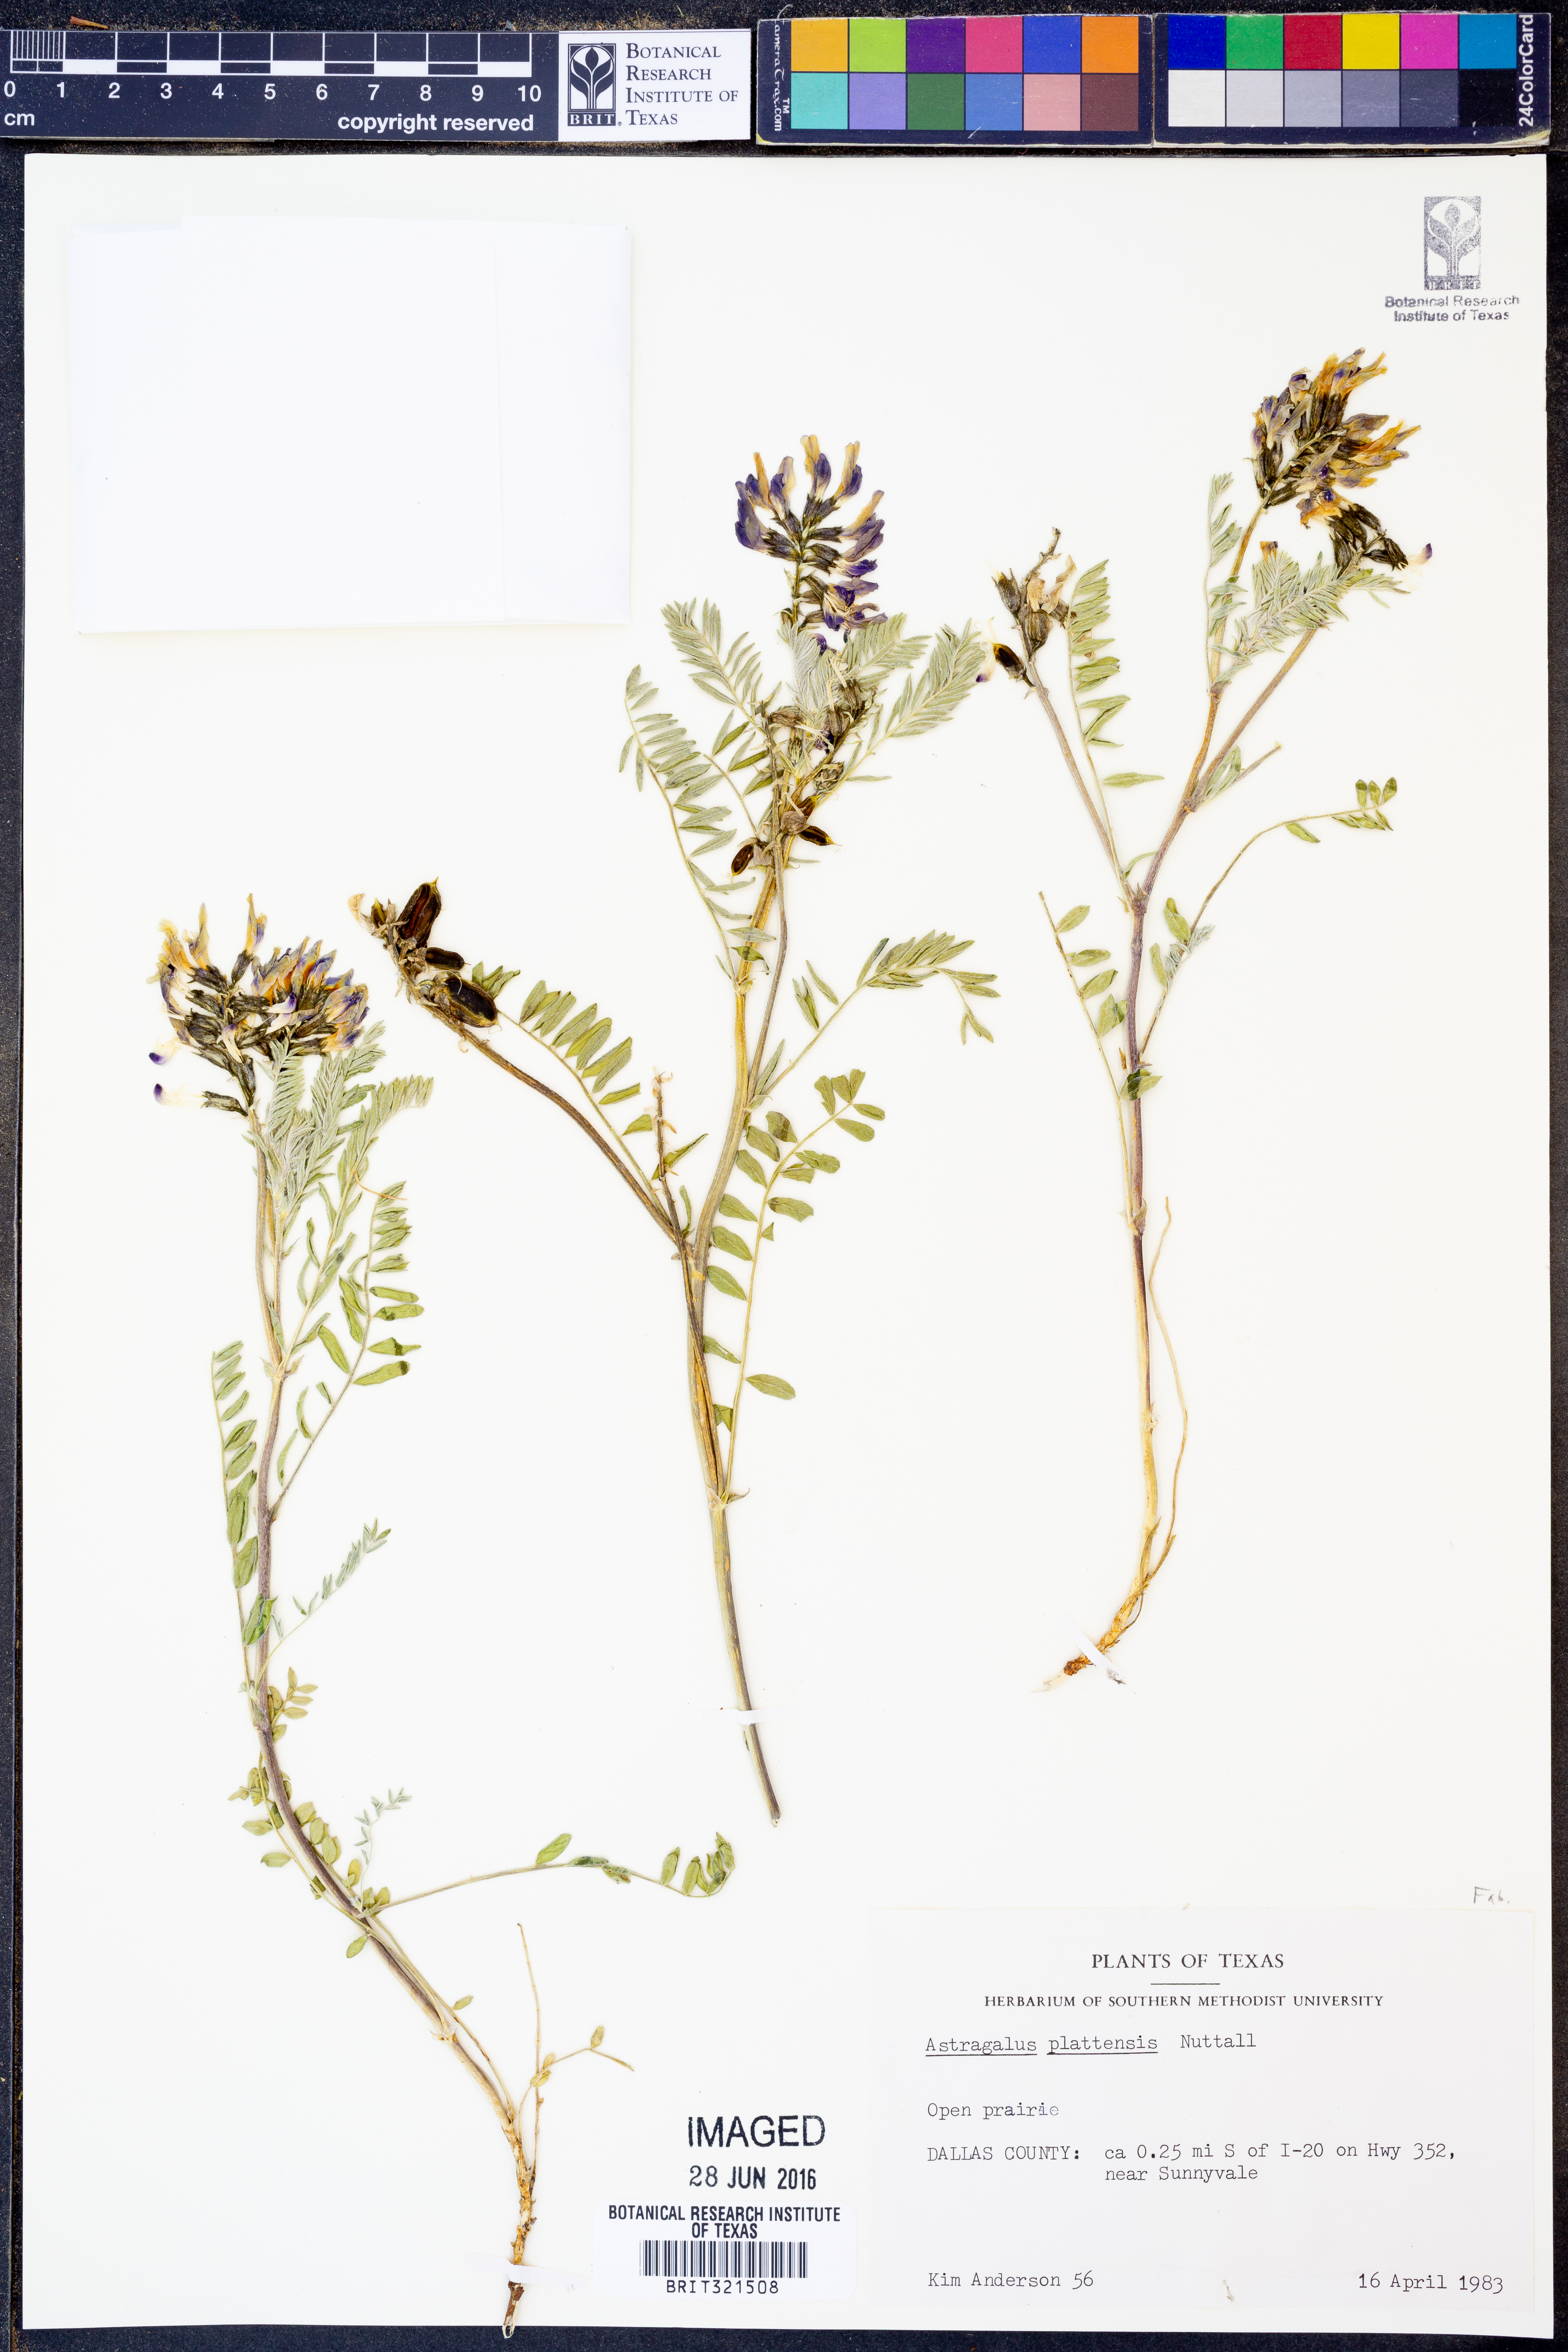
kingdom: Plantae
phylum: Tracheophyta
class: Magnoliopsida
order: Fabales
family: Fabaceae
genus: Astragalus
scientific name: Astragalus plattensis
